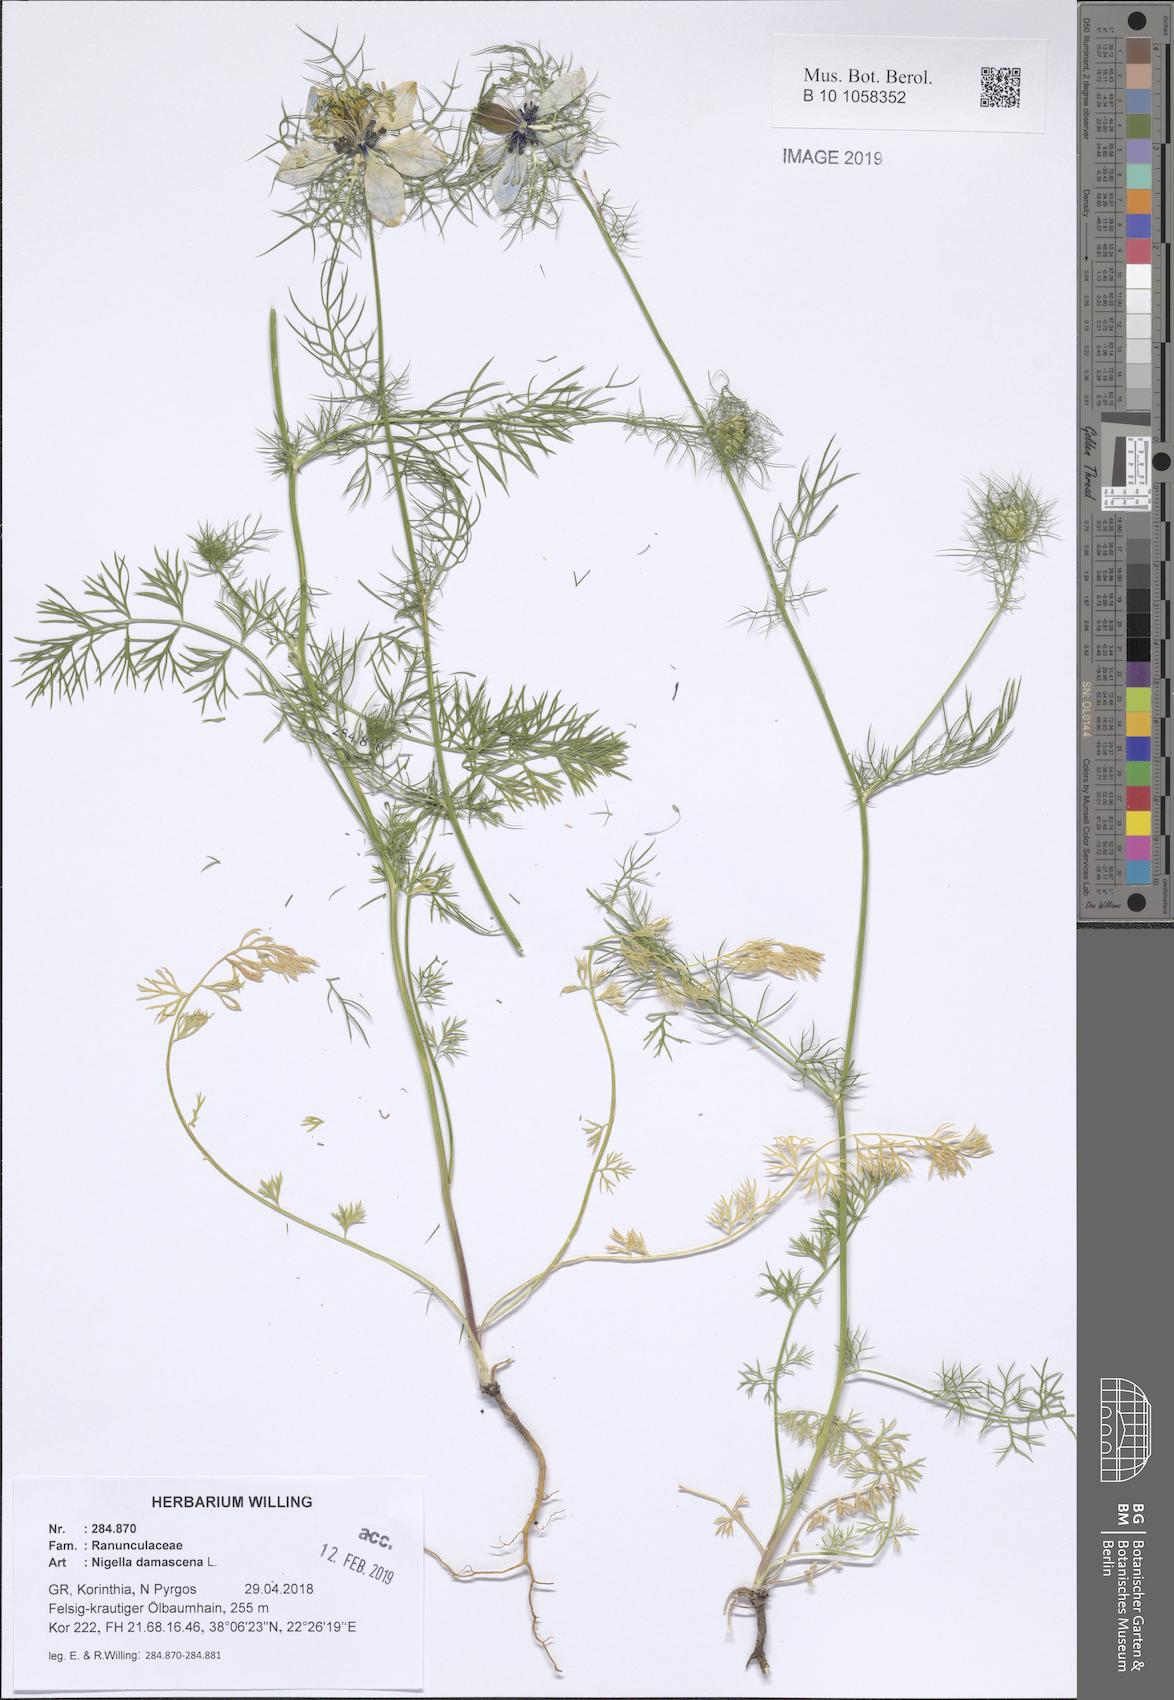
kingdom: Plantae
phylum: Tracheophyta
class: Magnoliopsida
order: Ranunculales
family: Ranunculaceae
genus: Nigella
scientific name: Nigella damascena
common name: Love-in-a-mist
